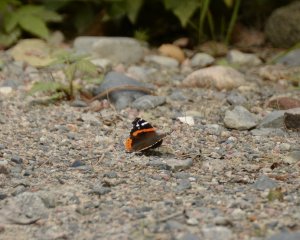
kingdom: Animalia
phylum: Arthropoda
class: Insecta
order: Lepidoptera
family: Nymphalidae
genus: Vanessa
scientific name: Vanessa atalanta
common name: Red Admiral
